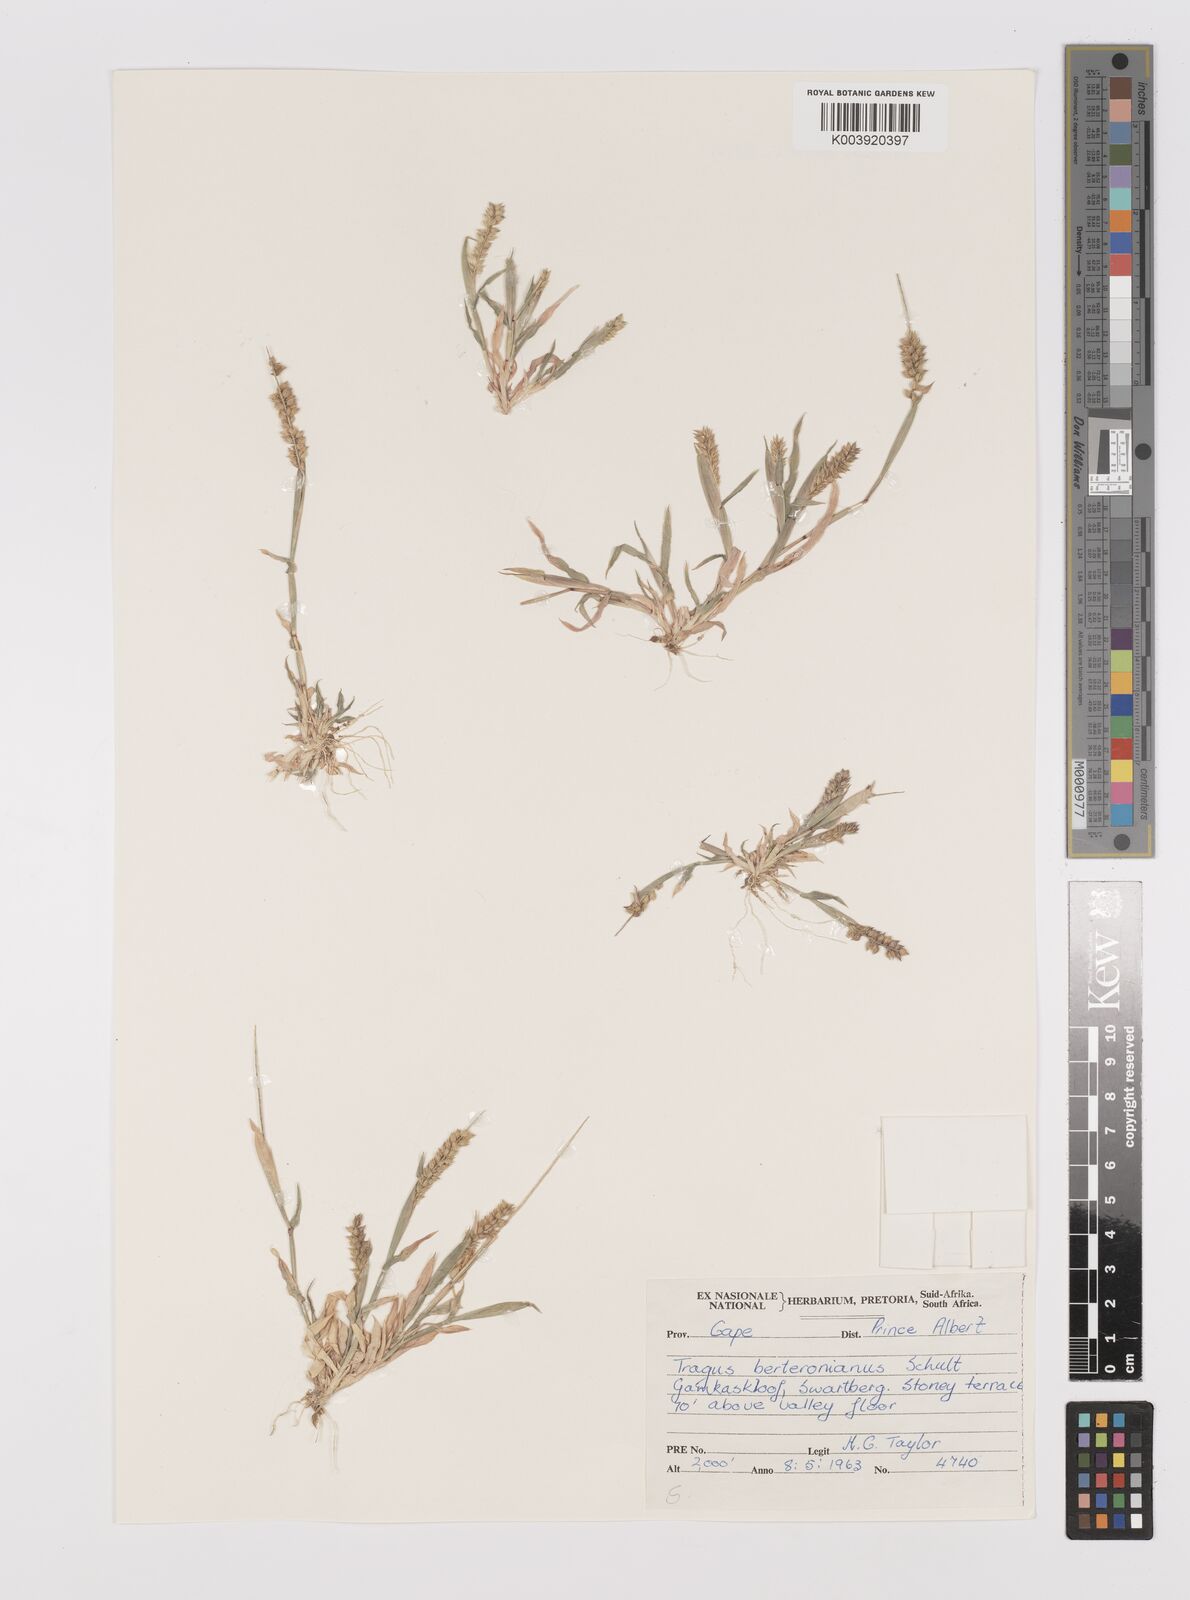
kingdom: Plantae
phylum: Tracheophyta
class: Liliopsida
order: Poales
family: Poaceae
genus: Tragus
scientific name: Tragus berteronianus
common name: African bur-grass
